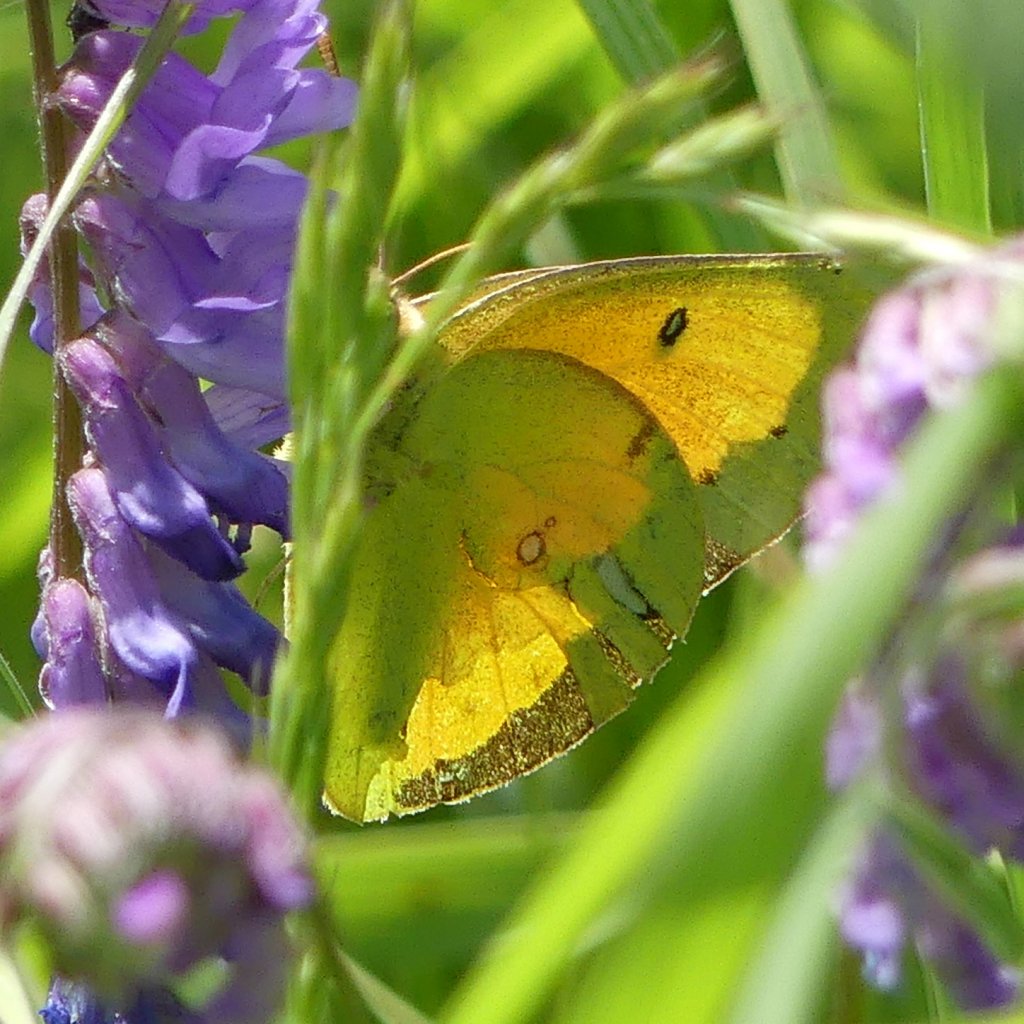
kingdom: Animalia
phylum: Arthropoda
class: Insecta
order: Lepidoptera
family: Pieridae
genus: Colias
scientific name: Colias eurytheme
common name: Orange Sulphur
